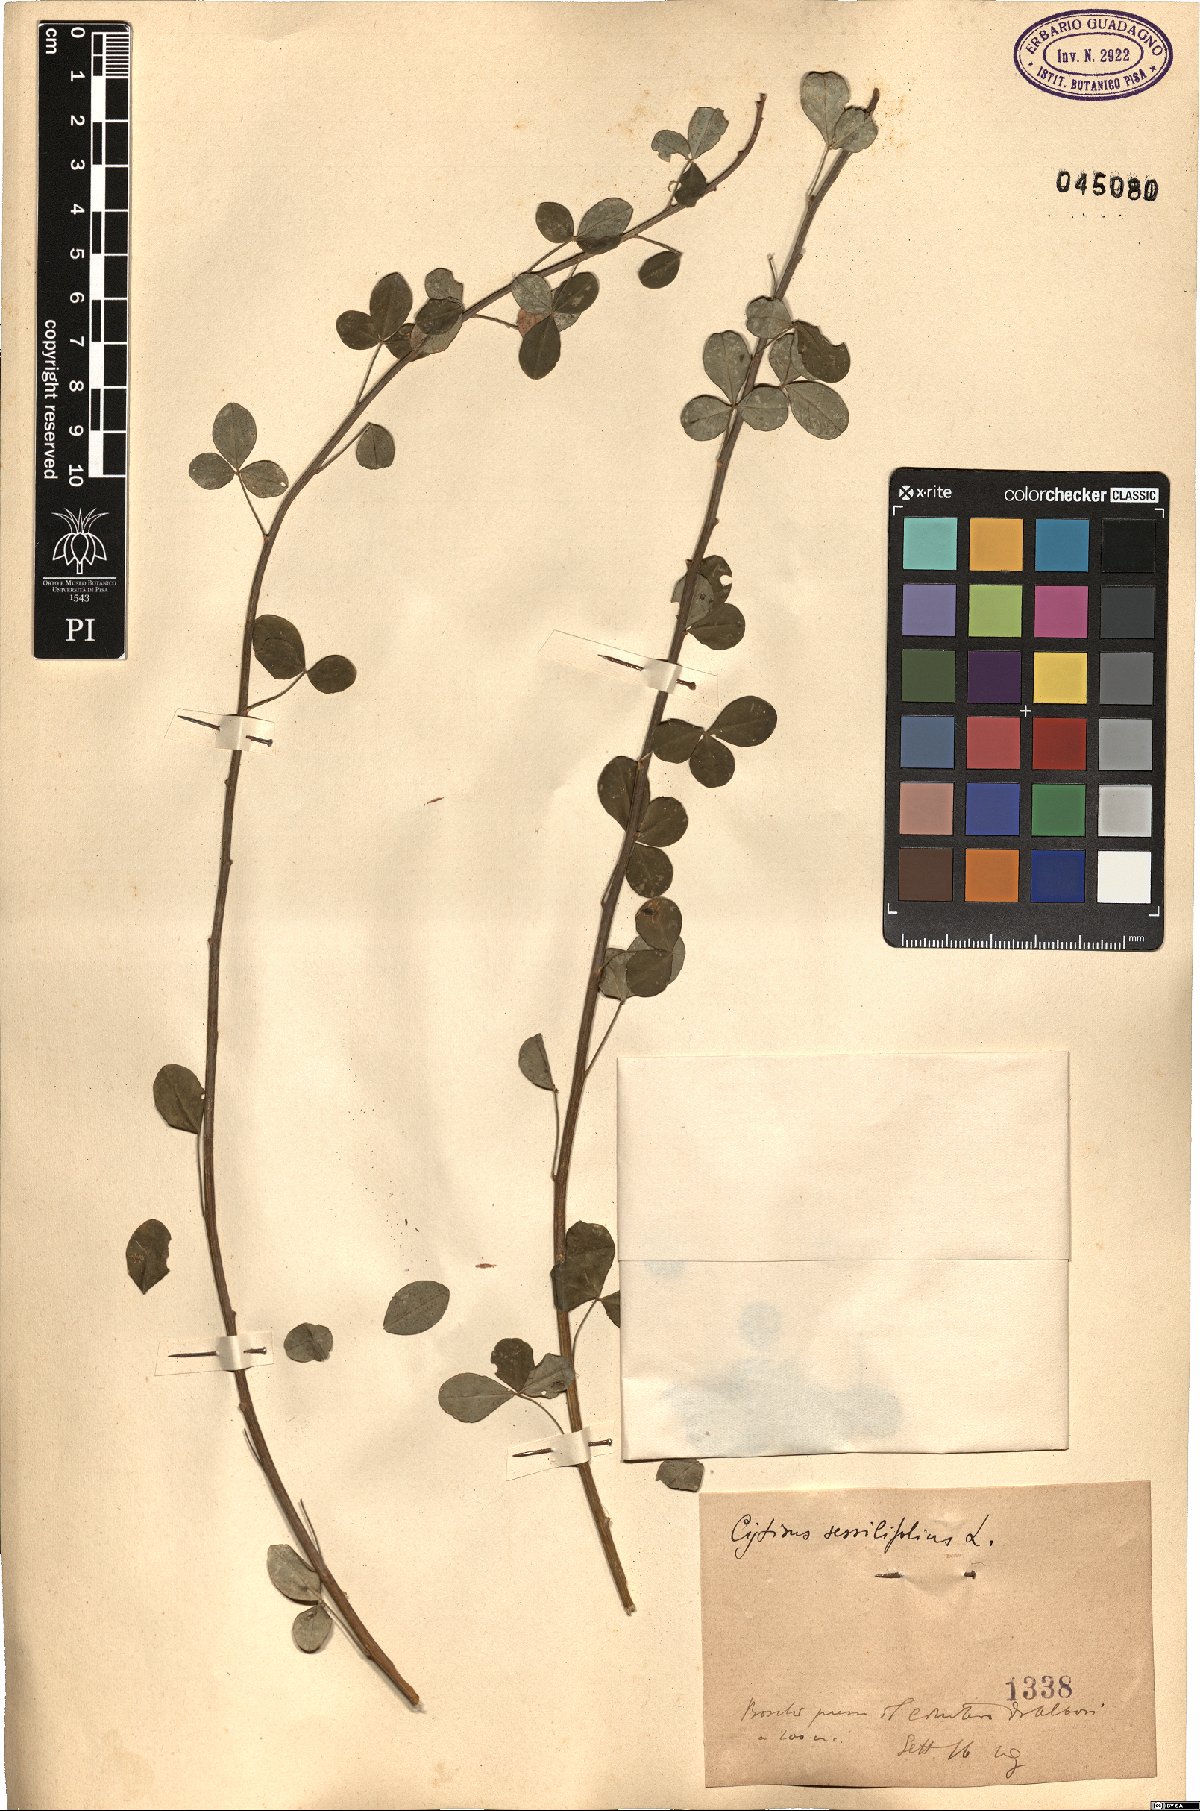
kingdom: Plantae
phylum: Tracheophyta
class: Magnoliopsida
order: Fabales
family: Fabaceae
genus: Cytisophyllum
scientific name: Cytisophyllum sessilifolium
